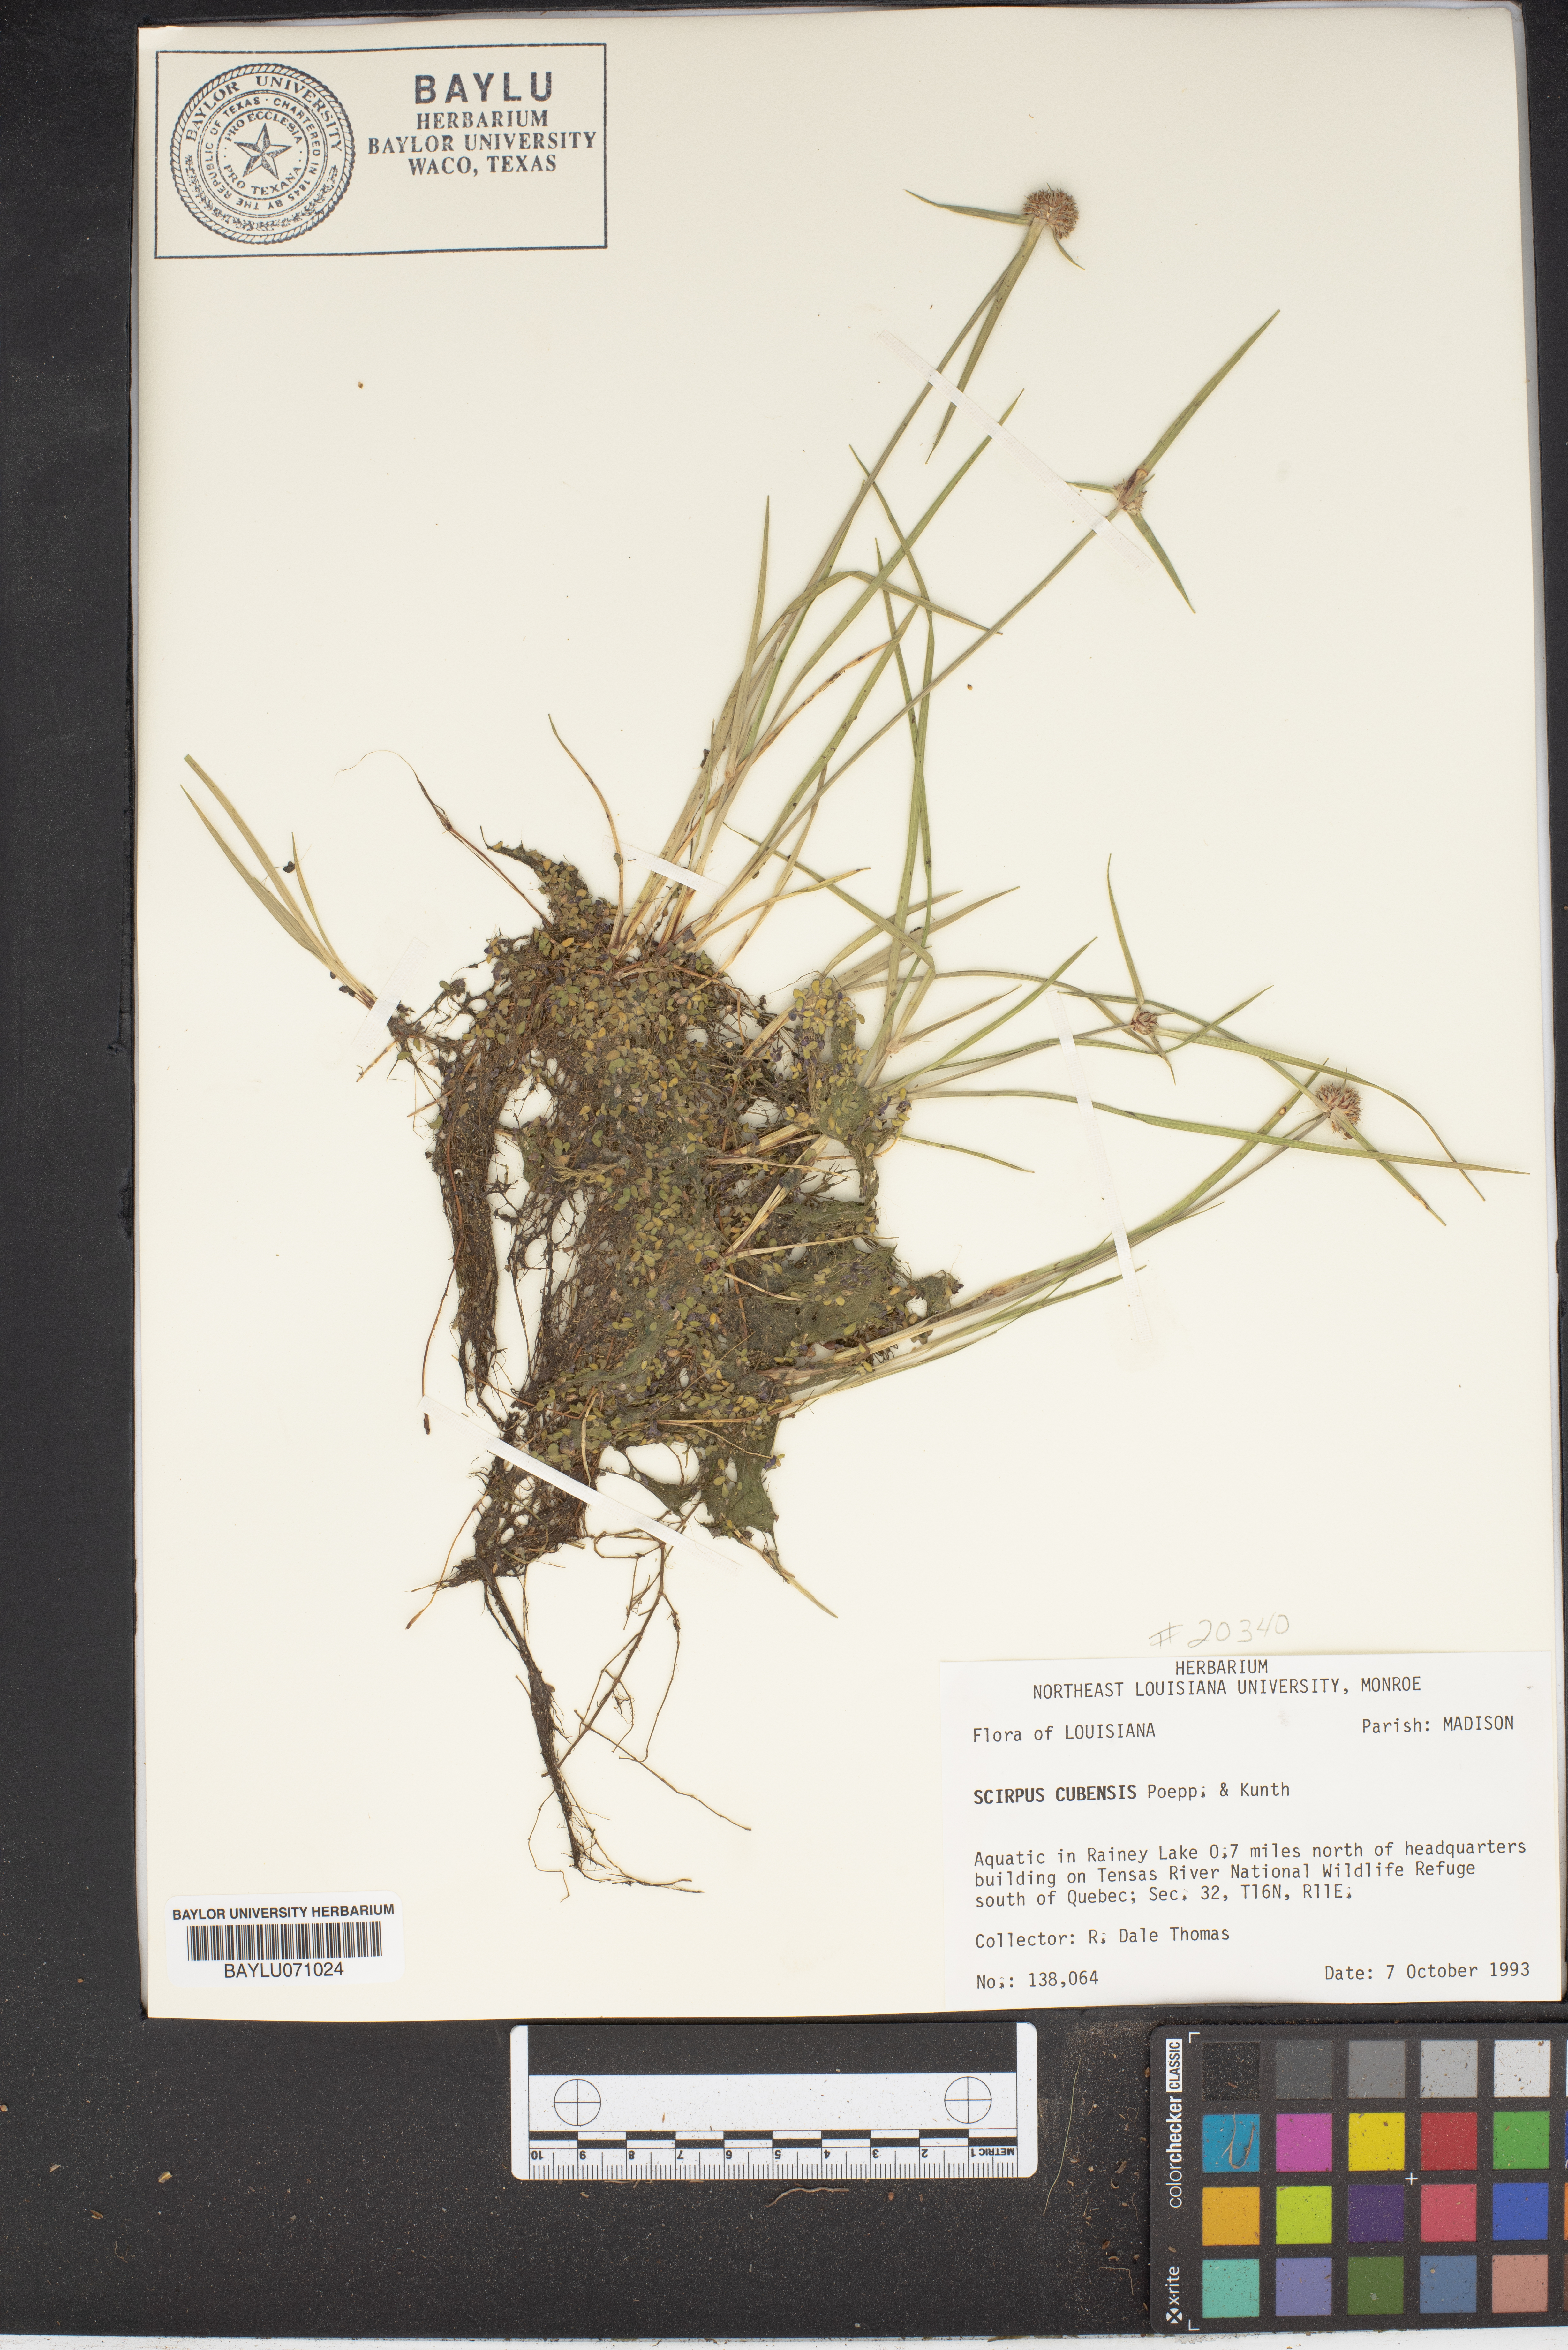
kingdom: Plantae
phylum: Tracheophyta
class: Liliopsida
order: Poales
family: Cyperaceae
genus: Cyperus
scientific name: Cyperus blepharoleptos
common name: Cuban bulrush
